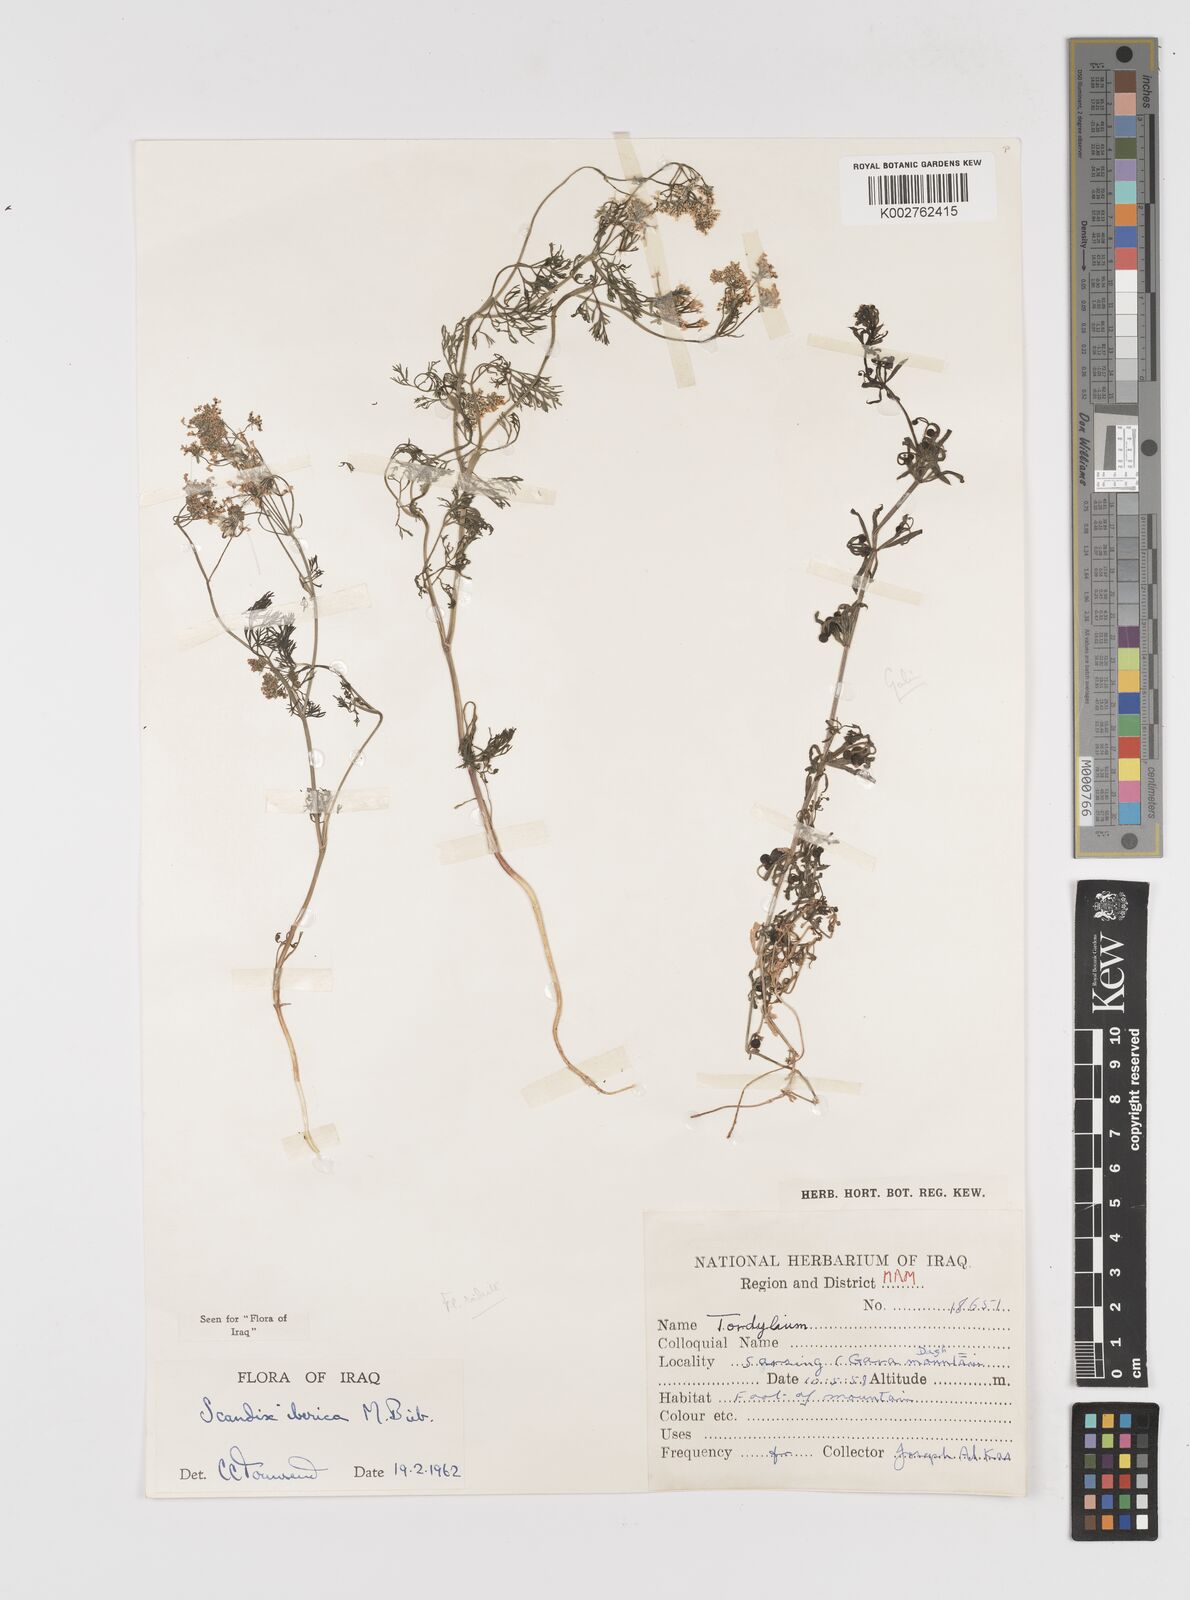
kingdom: Plantae
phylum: Tracheophyta
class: Magnoliopsida
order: Apiales
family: Apiaceae
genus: Scandix
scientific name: Scandix iberica
